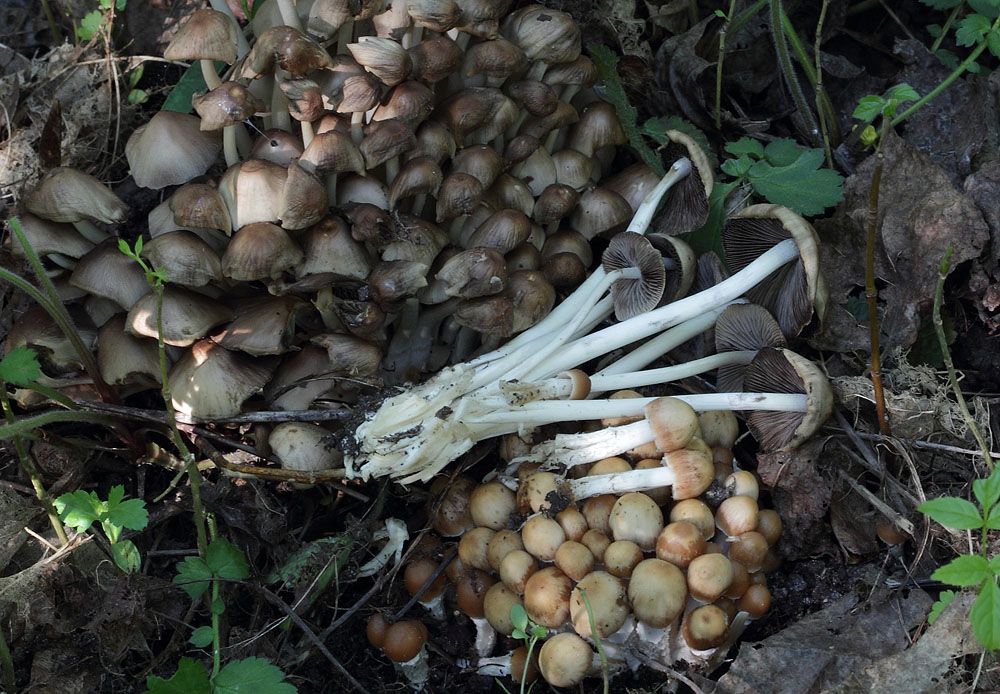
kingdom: Fungi
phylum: Basidiomycota
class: Agaricomycetes
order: Agaricales
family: Psathyrellaceae
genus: Britzelmayria
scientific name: Britzelmayria multipedata
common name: knippe-mørkhat
